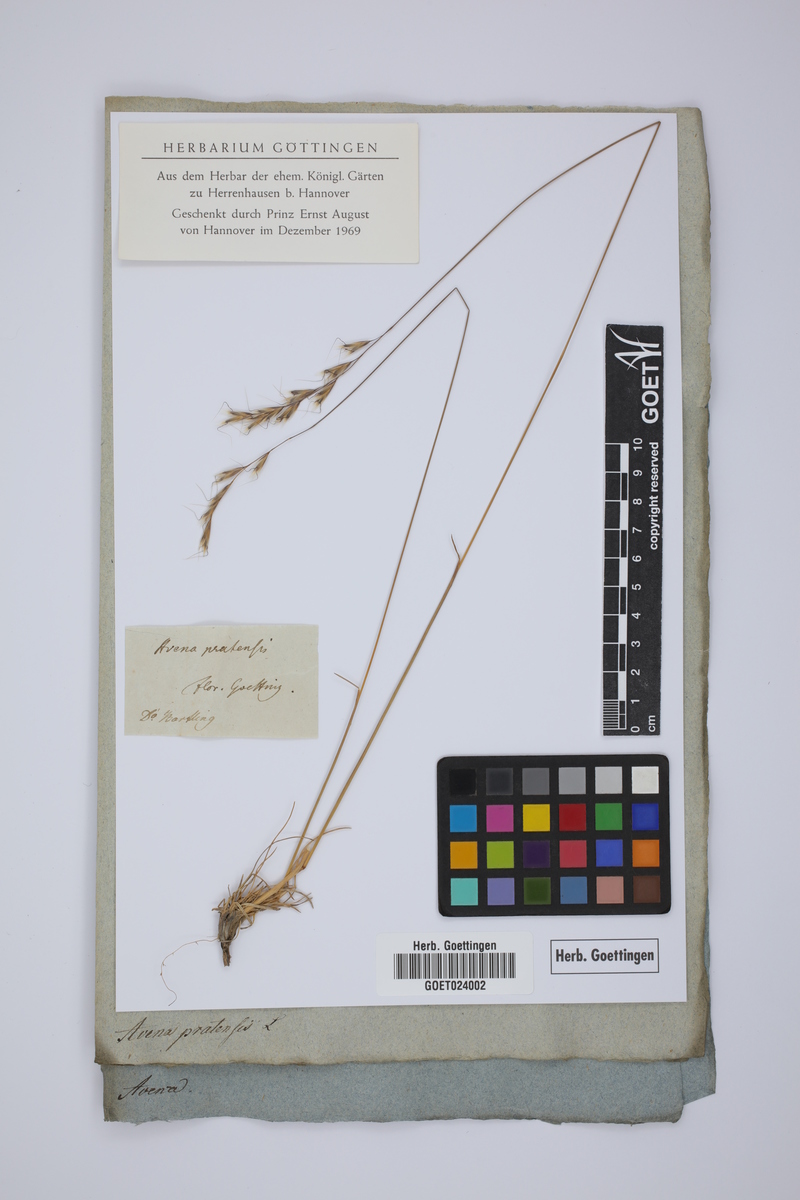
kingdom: Plantae
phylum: Tracheophyta
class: Liliopsida
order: Poales
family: Poaceae
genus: Helictochloa
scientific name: Helictochloa pratensis
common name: Meadow oat grass
